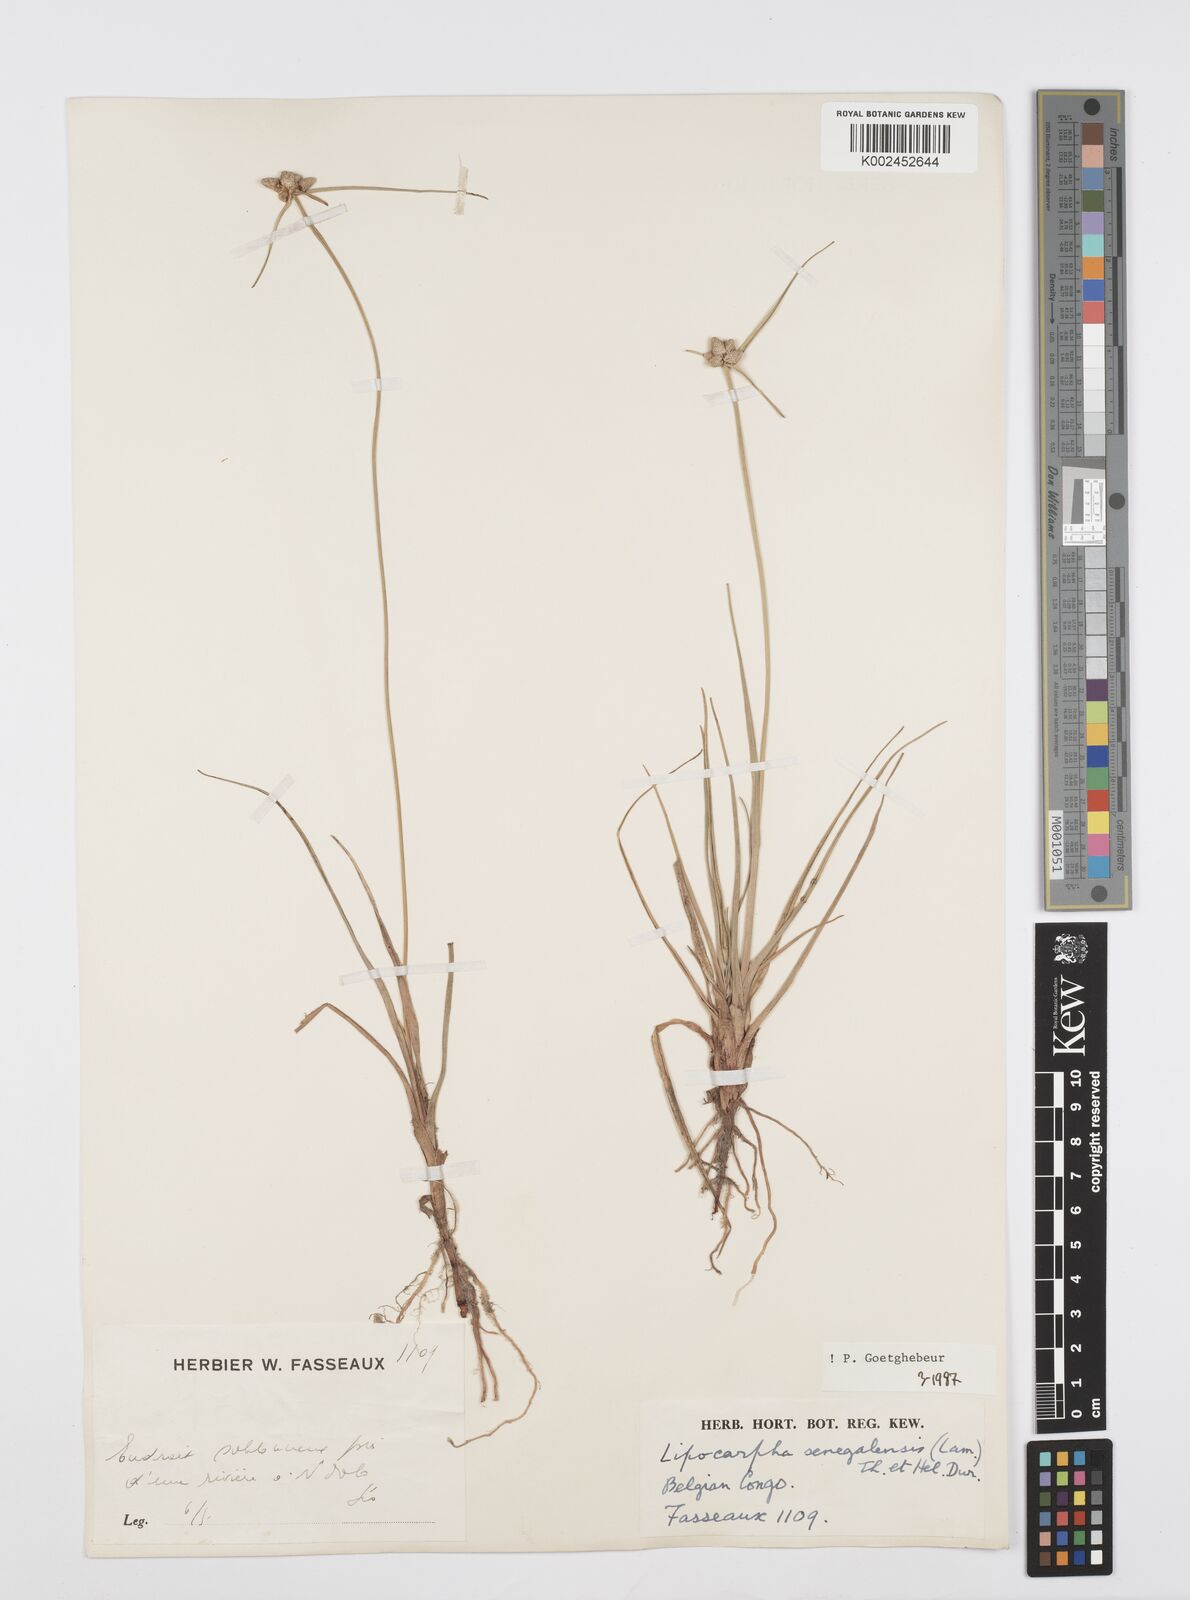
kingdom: Plantae
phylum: Tracheophyta
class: Liliopsida
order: Poales
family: Cyperaceae
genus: Cyperus
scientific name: Cyperus albescens
